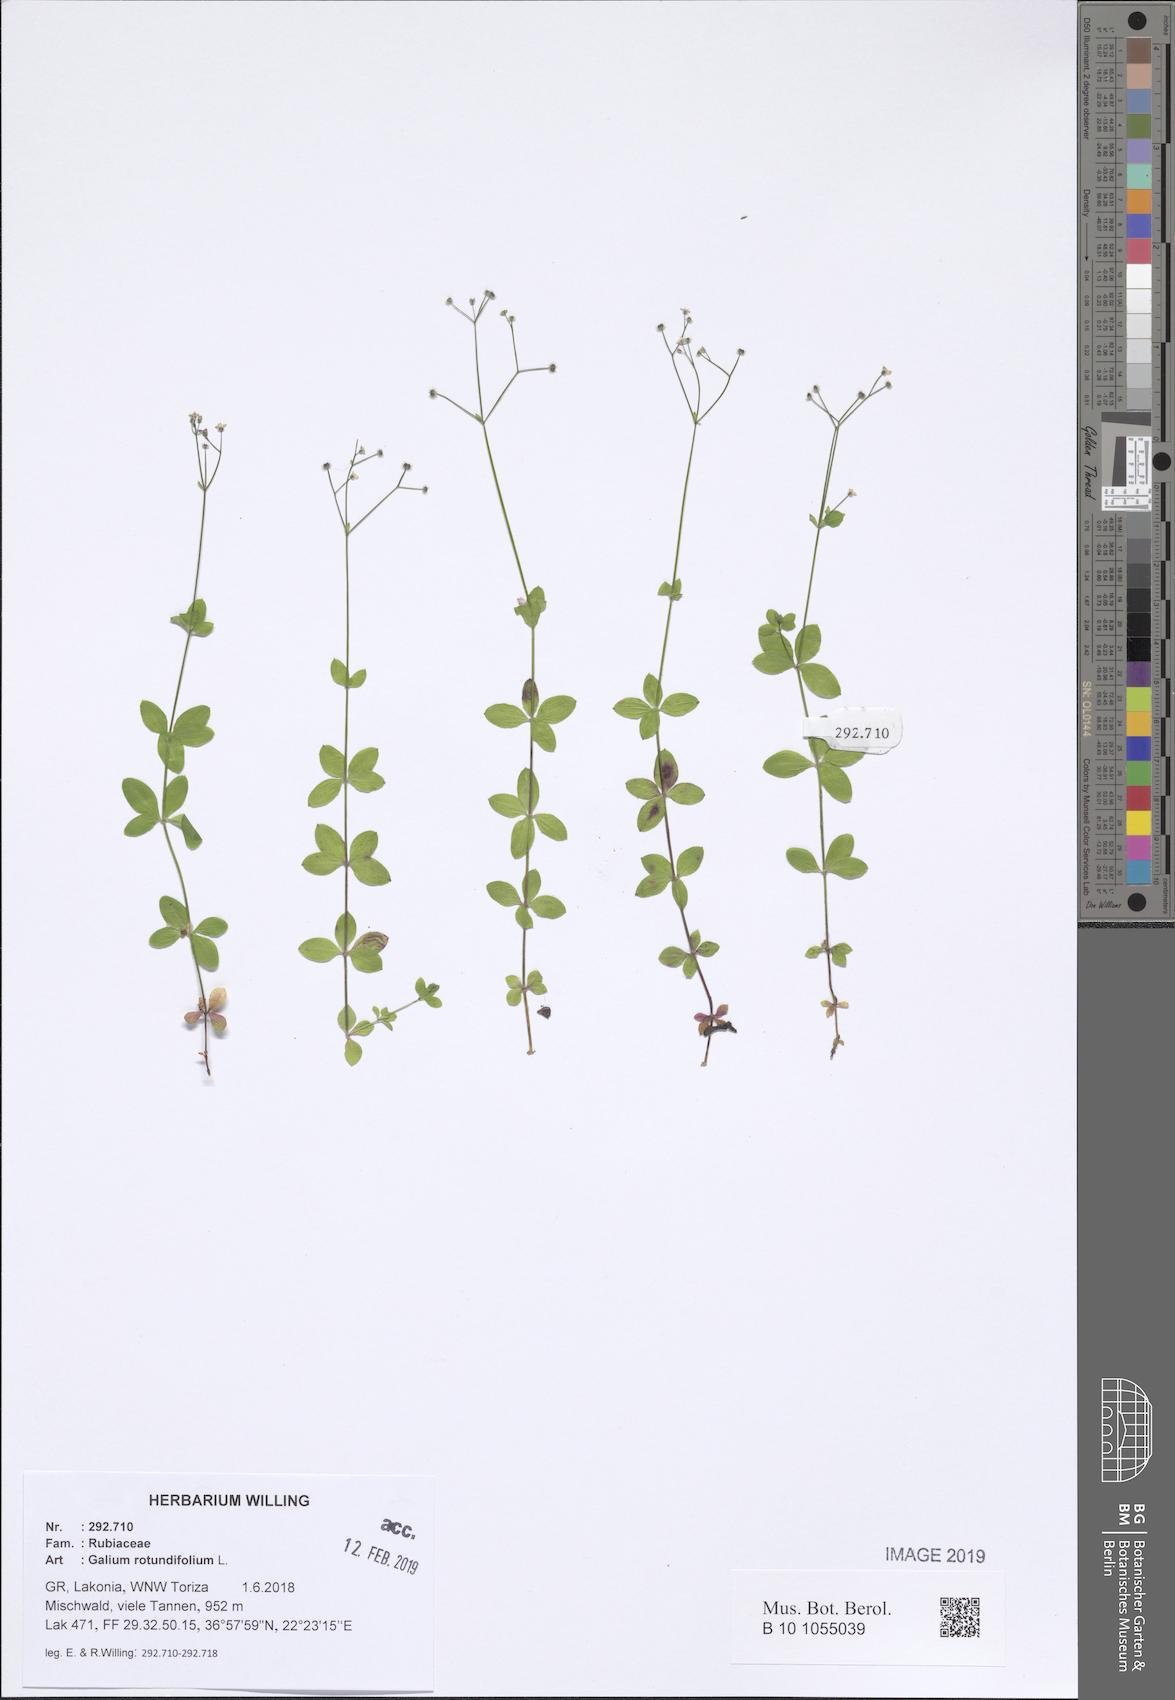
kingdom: Plantae
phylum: Tracheophyta
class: Magnoliopsida
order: Gentianales
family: Rubiaceae
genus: Galium
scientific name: Galium rotundifolium
